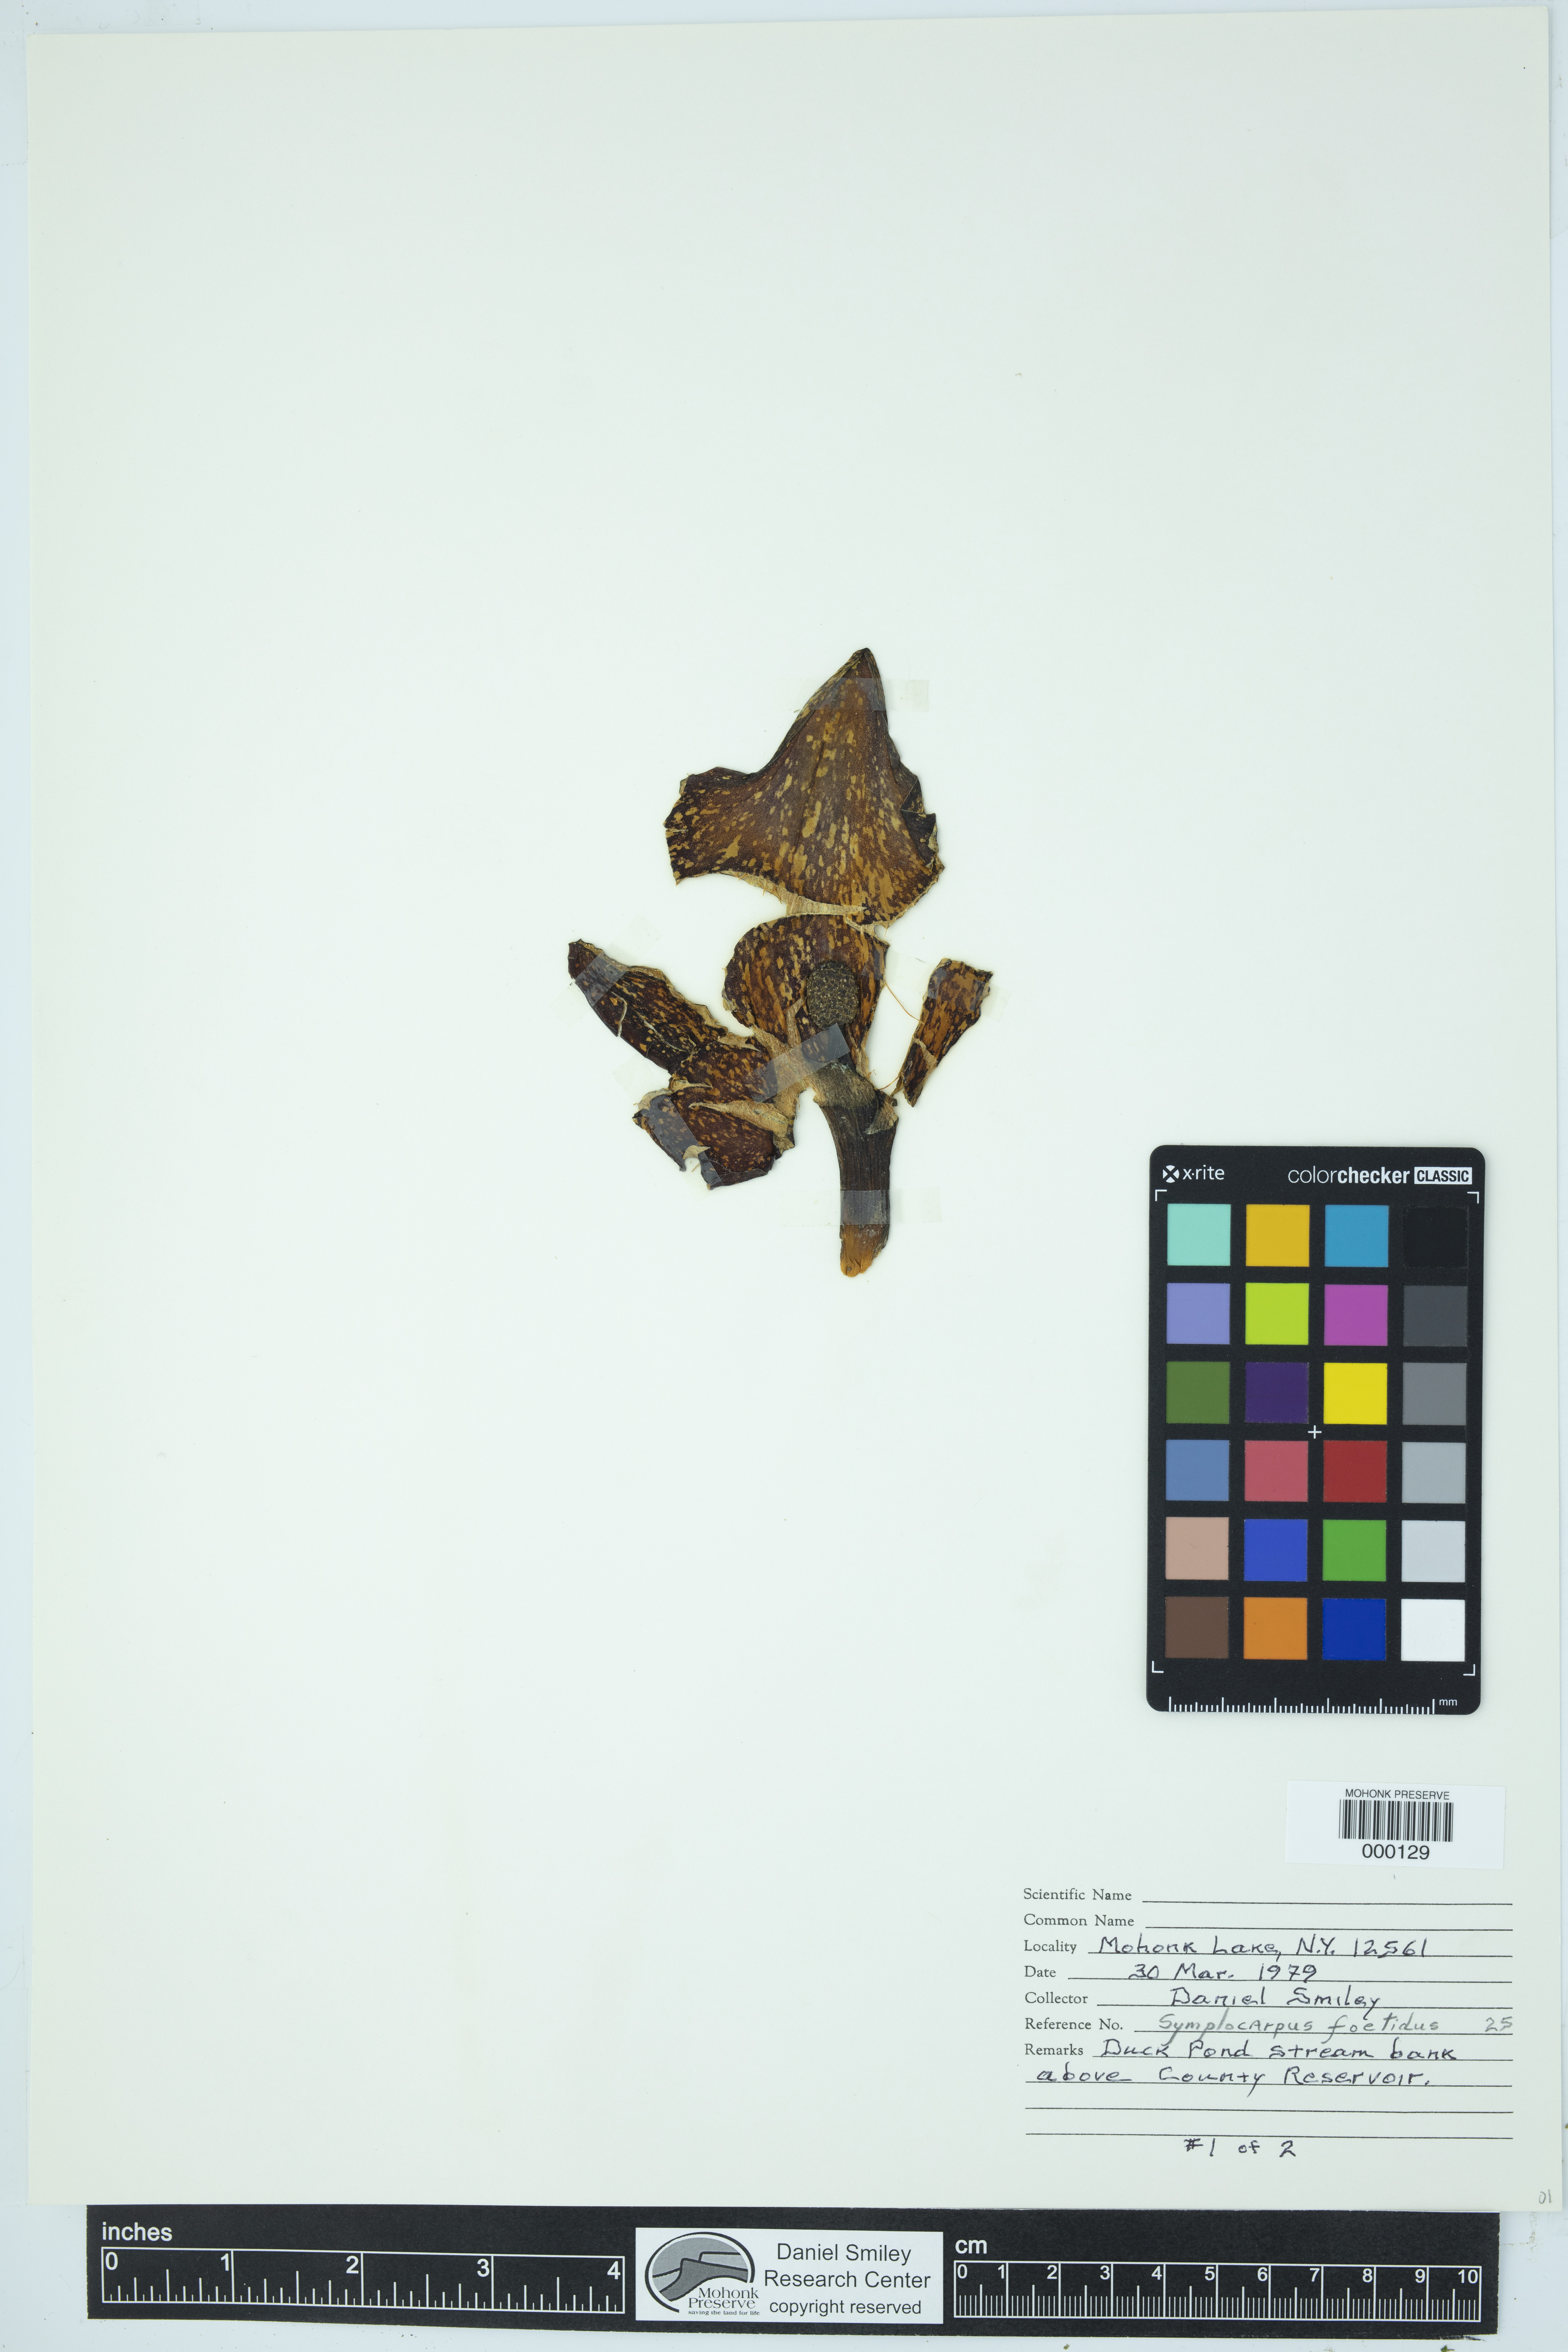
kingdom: Plantae
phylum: Tracheophyta
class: Liliopsida
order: Alismatales
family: Araceae
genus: Symplocarpus
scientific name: Symplocarpus foetidus
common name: Eastern skunk cabbage
